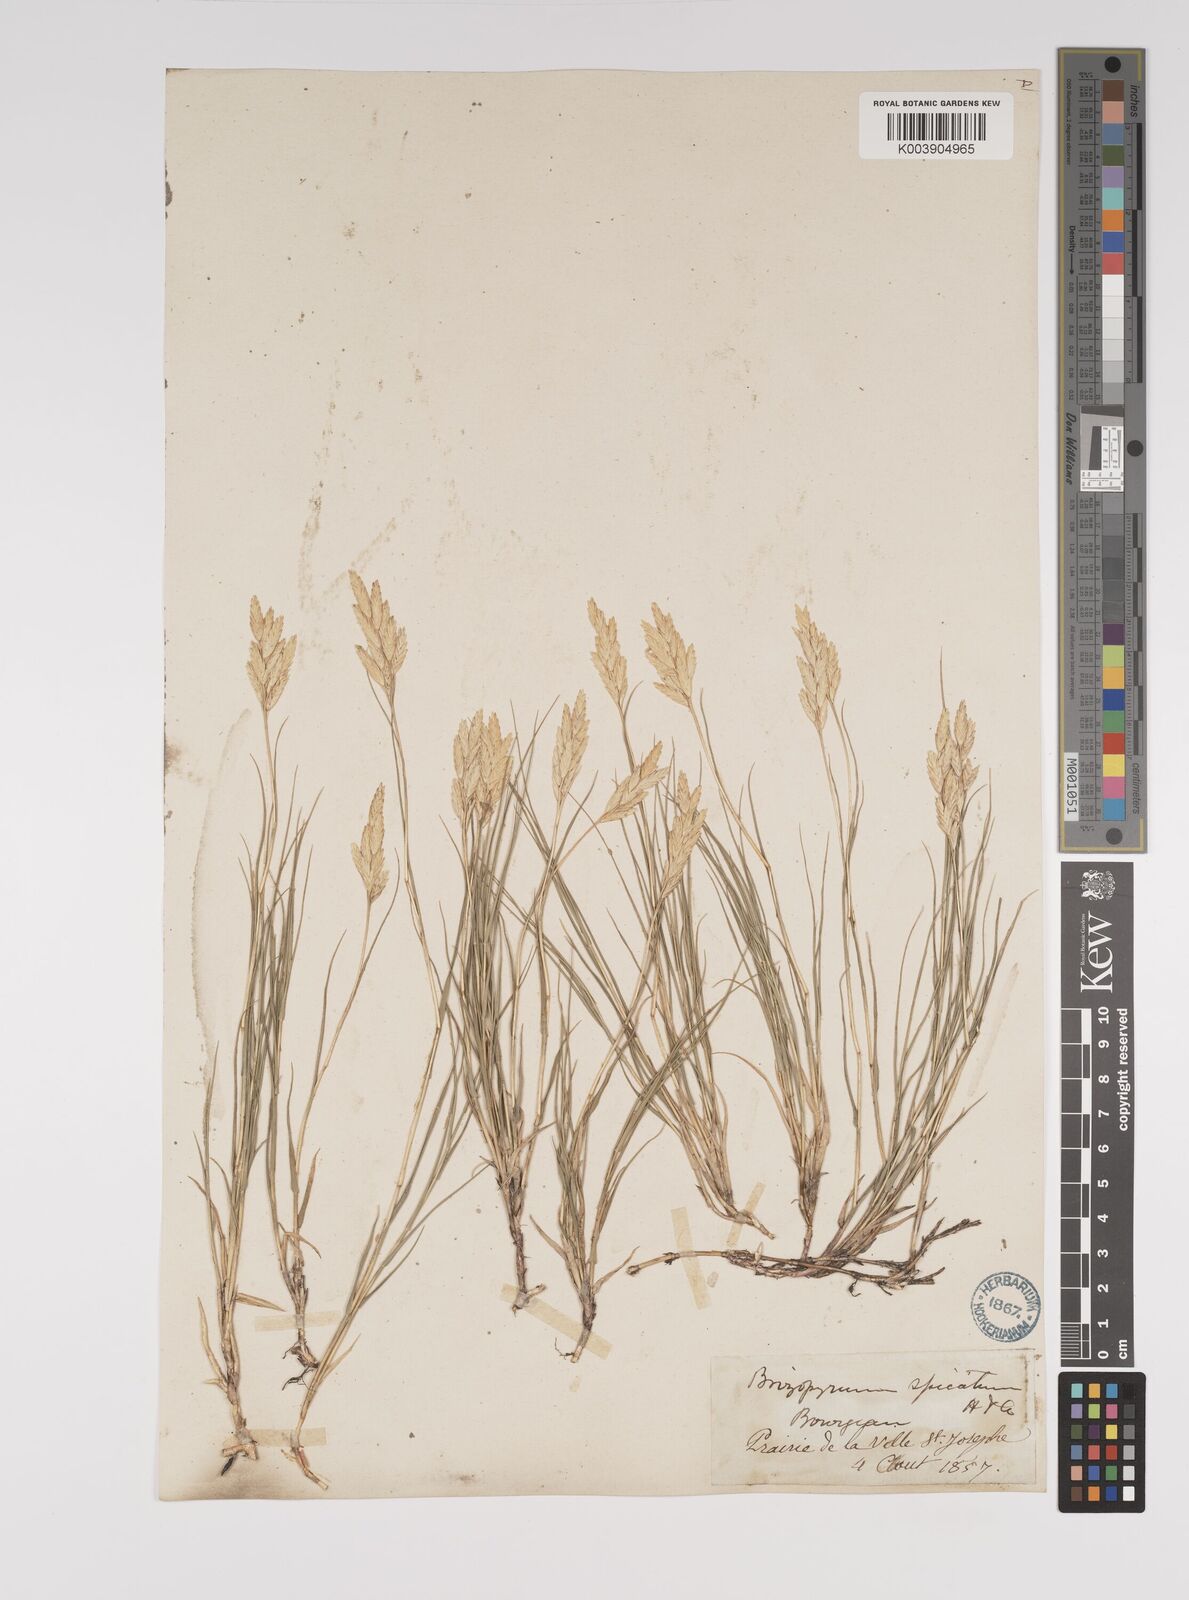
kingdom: Plantae
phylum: Tracheophyta
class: Liliopsida
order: Poales
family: Poaceae
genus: Distichlis
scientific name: Distichlis spicata
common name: Saltgrass
